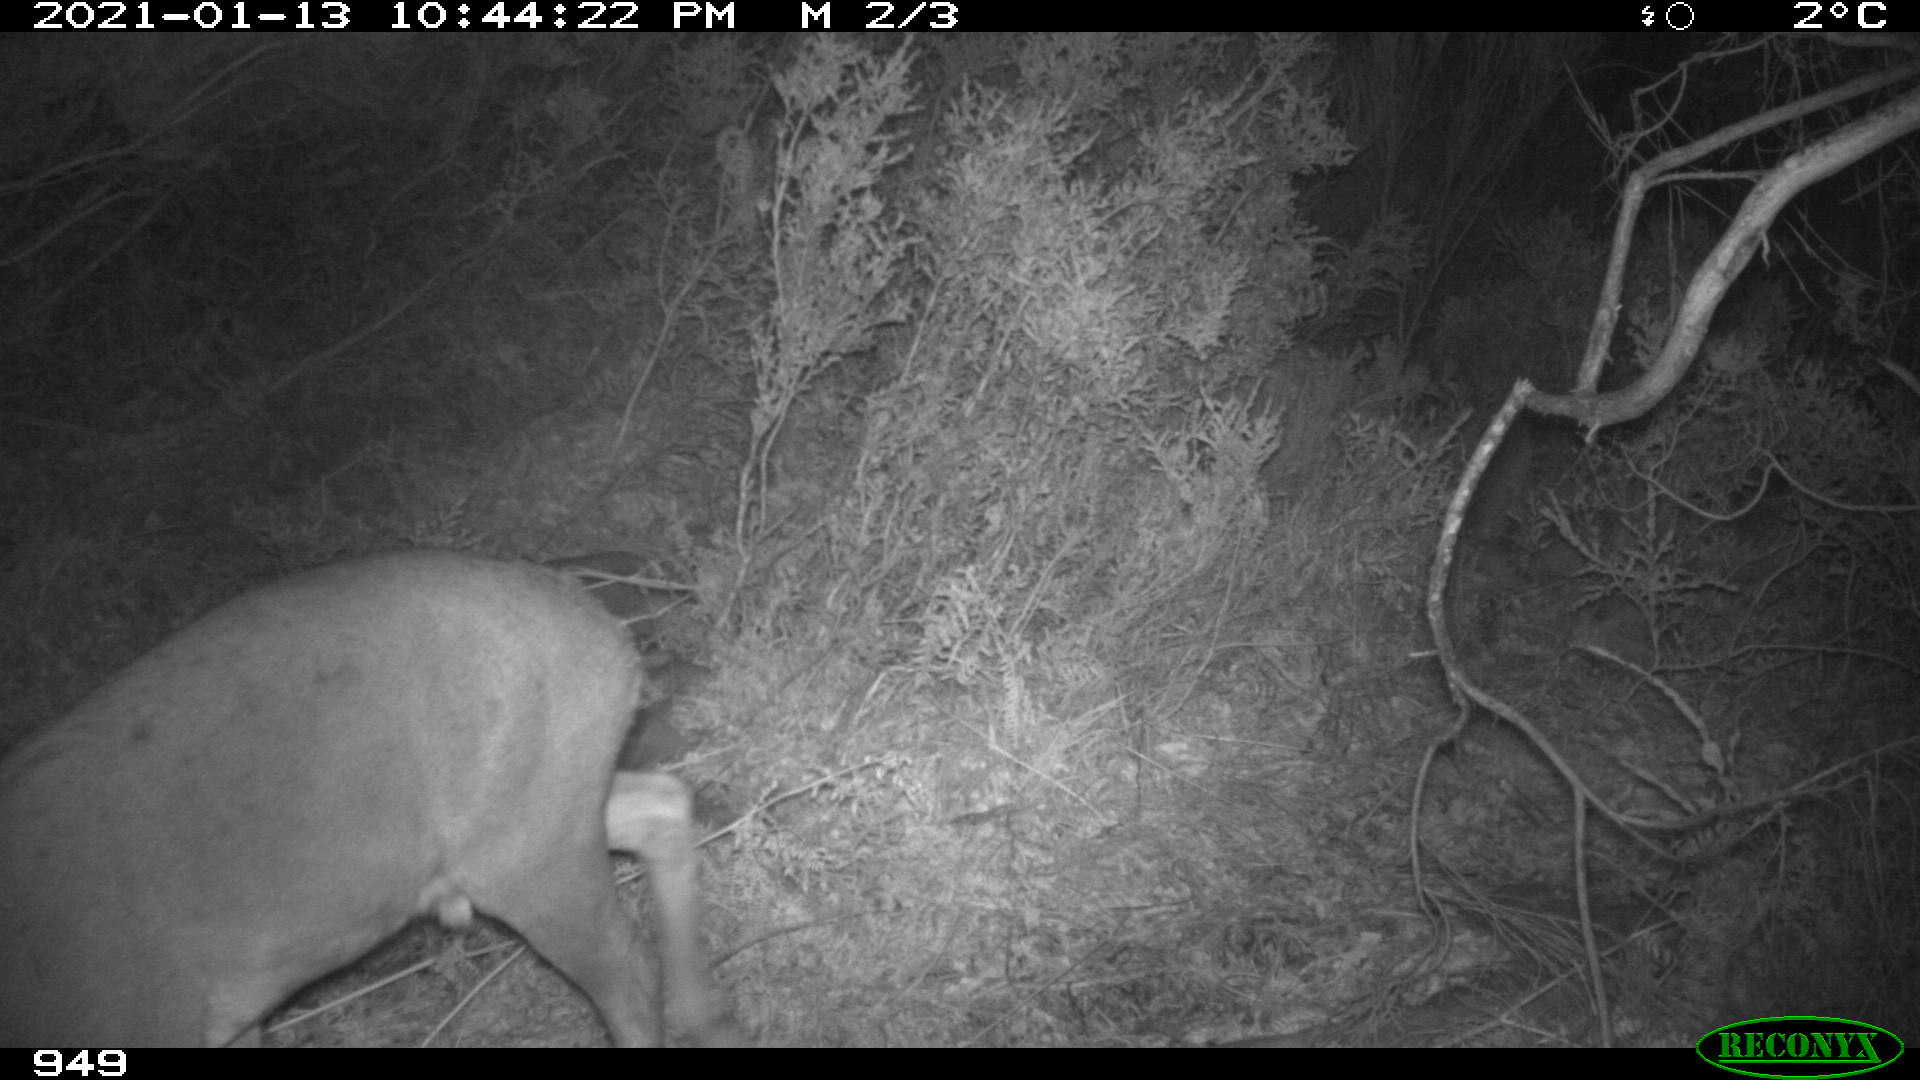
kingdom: Animalia
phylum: Chordata
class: Mammalia
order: Artiodactyla
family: Cervidae
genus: Capreolus
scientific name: Capreolus capreolus
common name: Western roe deer
